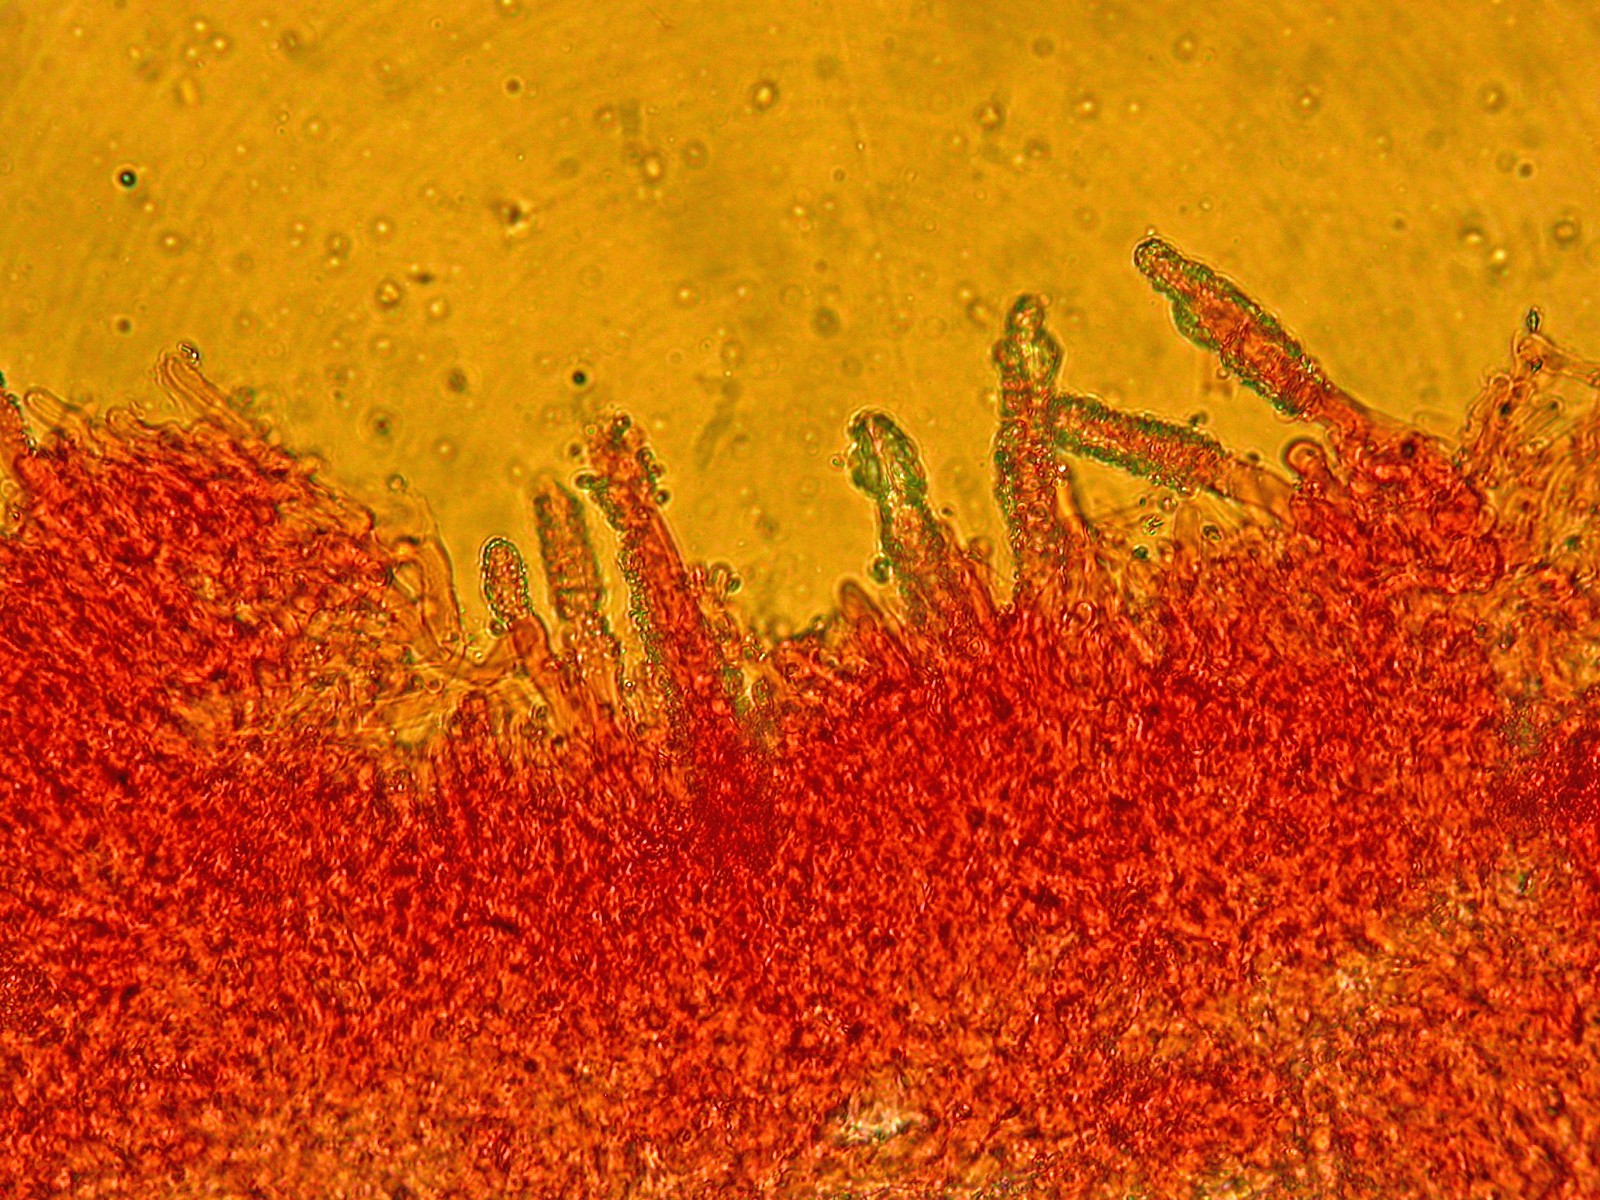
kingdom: Fungi
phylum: Basidiomycota
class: Agaricomycetes
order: Polyporales
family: Phanerochaetaceae
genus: Phanerochaete
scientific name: Phanerochaete velutina
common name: dunet randtråd
